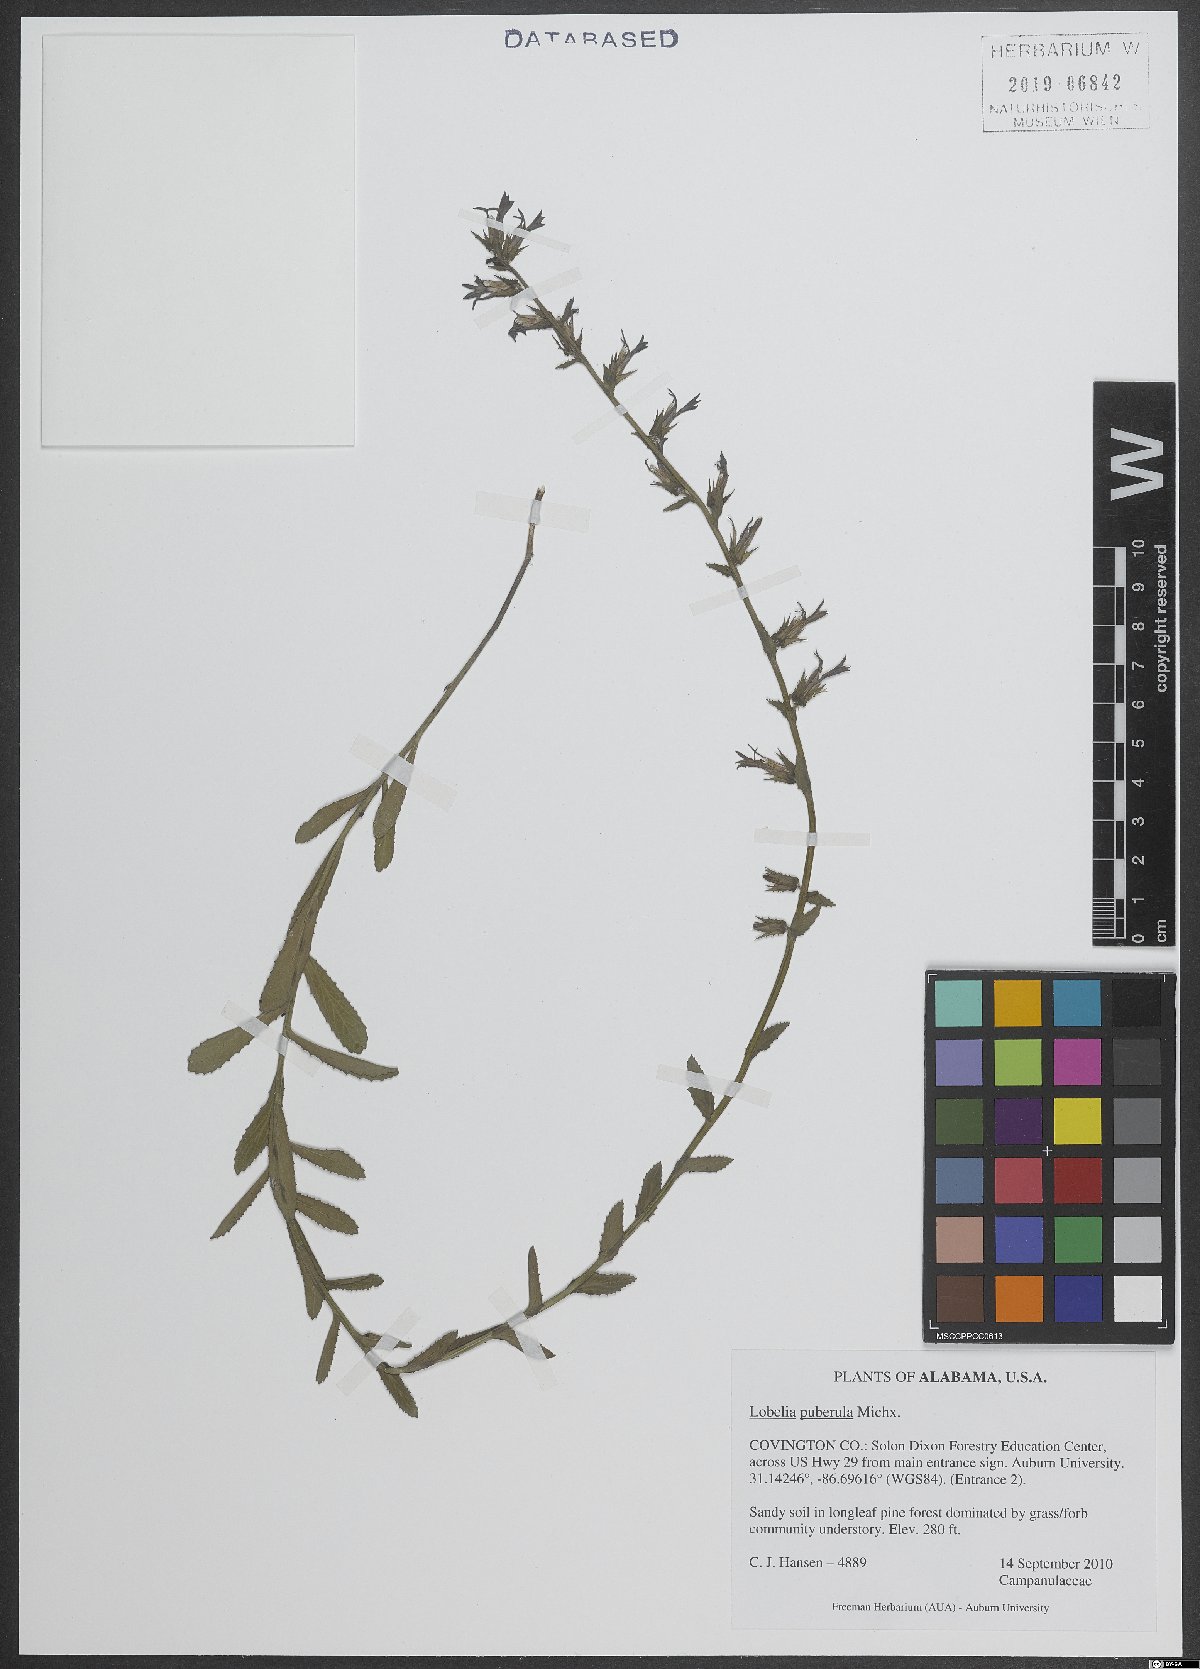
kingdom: Plantae
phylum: Tracheophyta
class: Magnoliopsida
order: Asterales
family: Campanulaceae
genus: Lobelia
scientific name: Lobelia puberula
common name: Purple dewdrop
